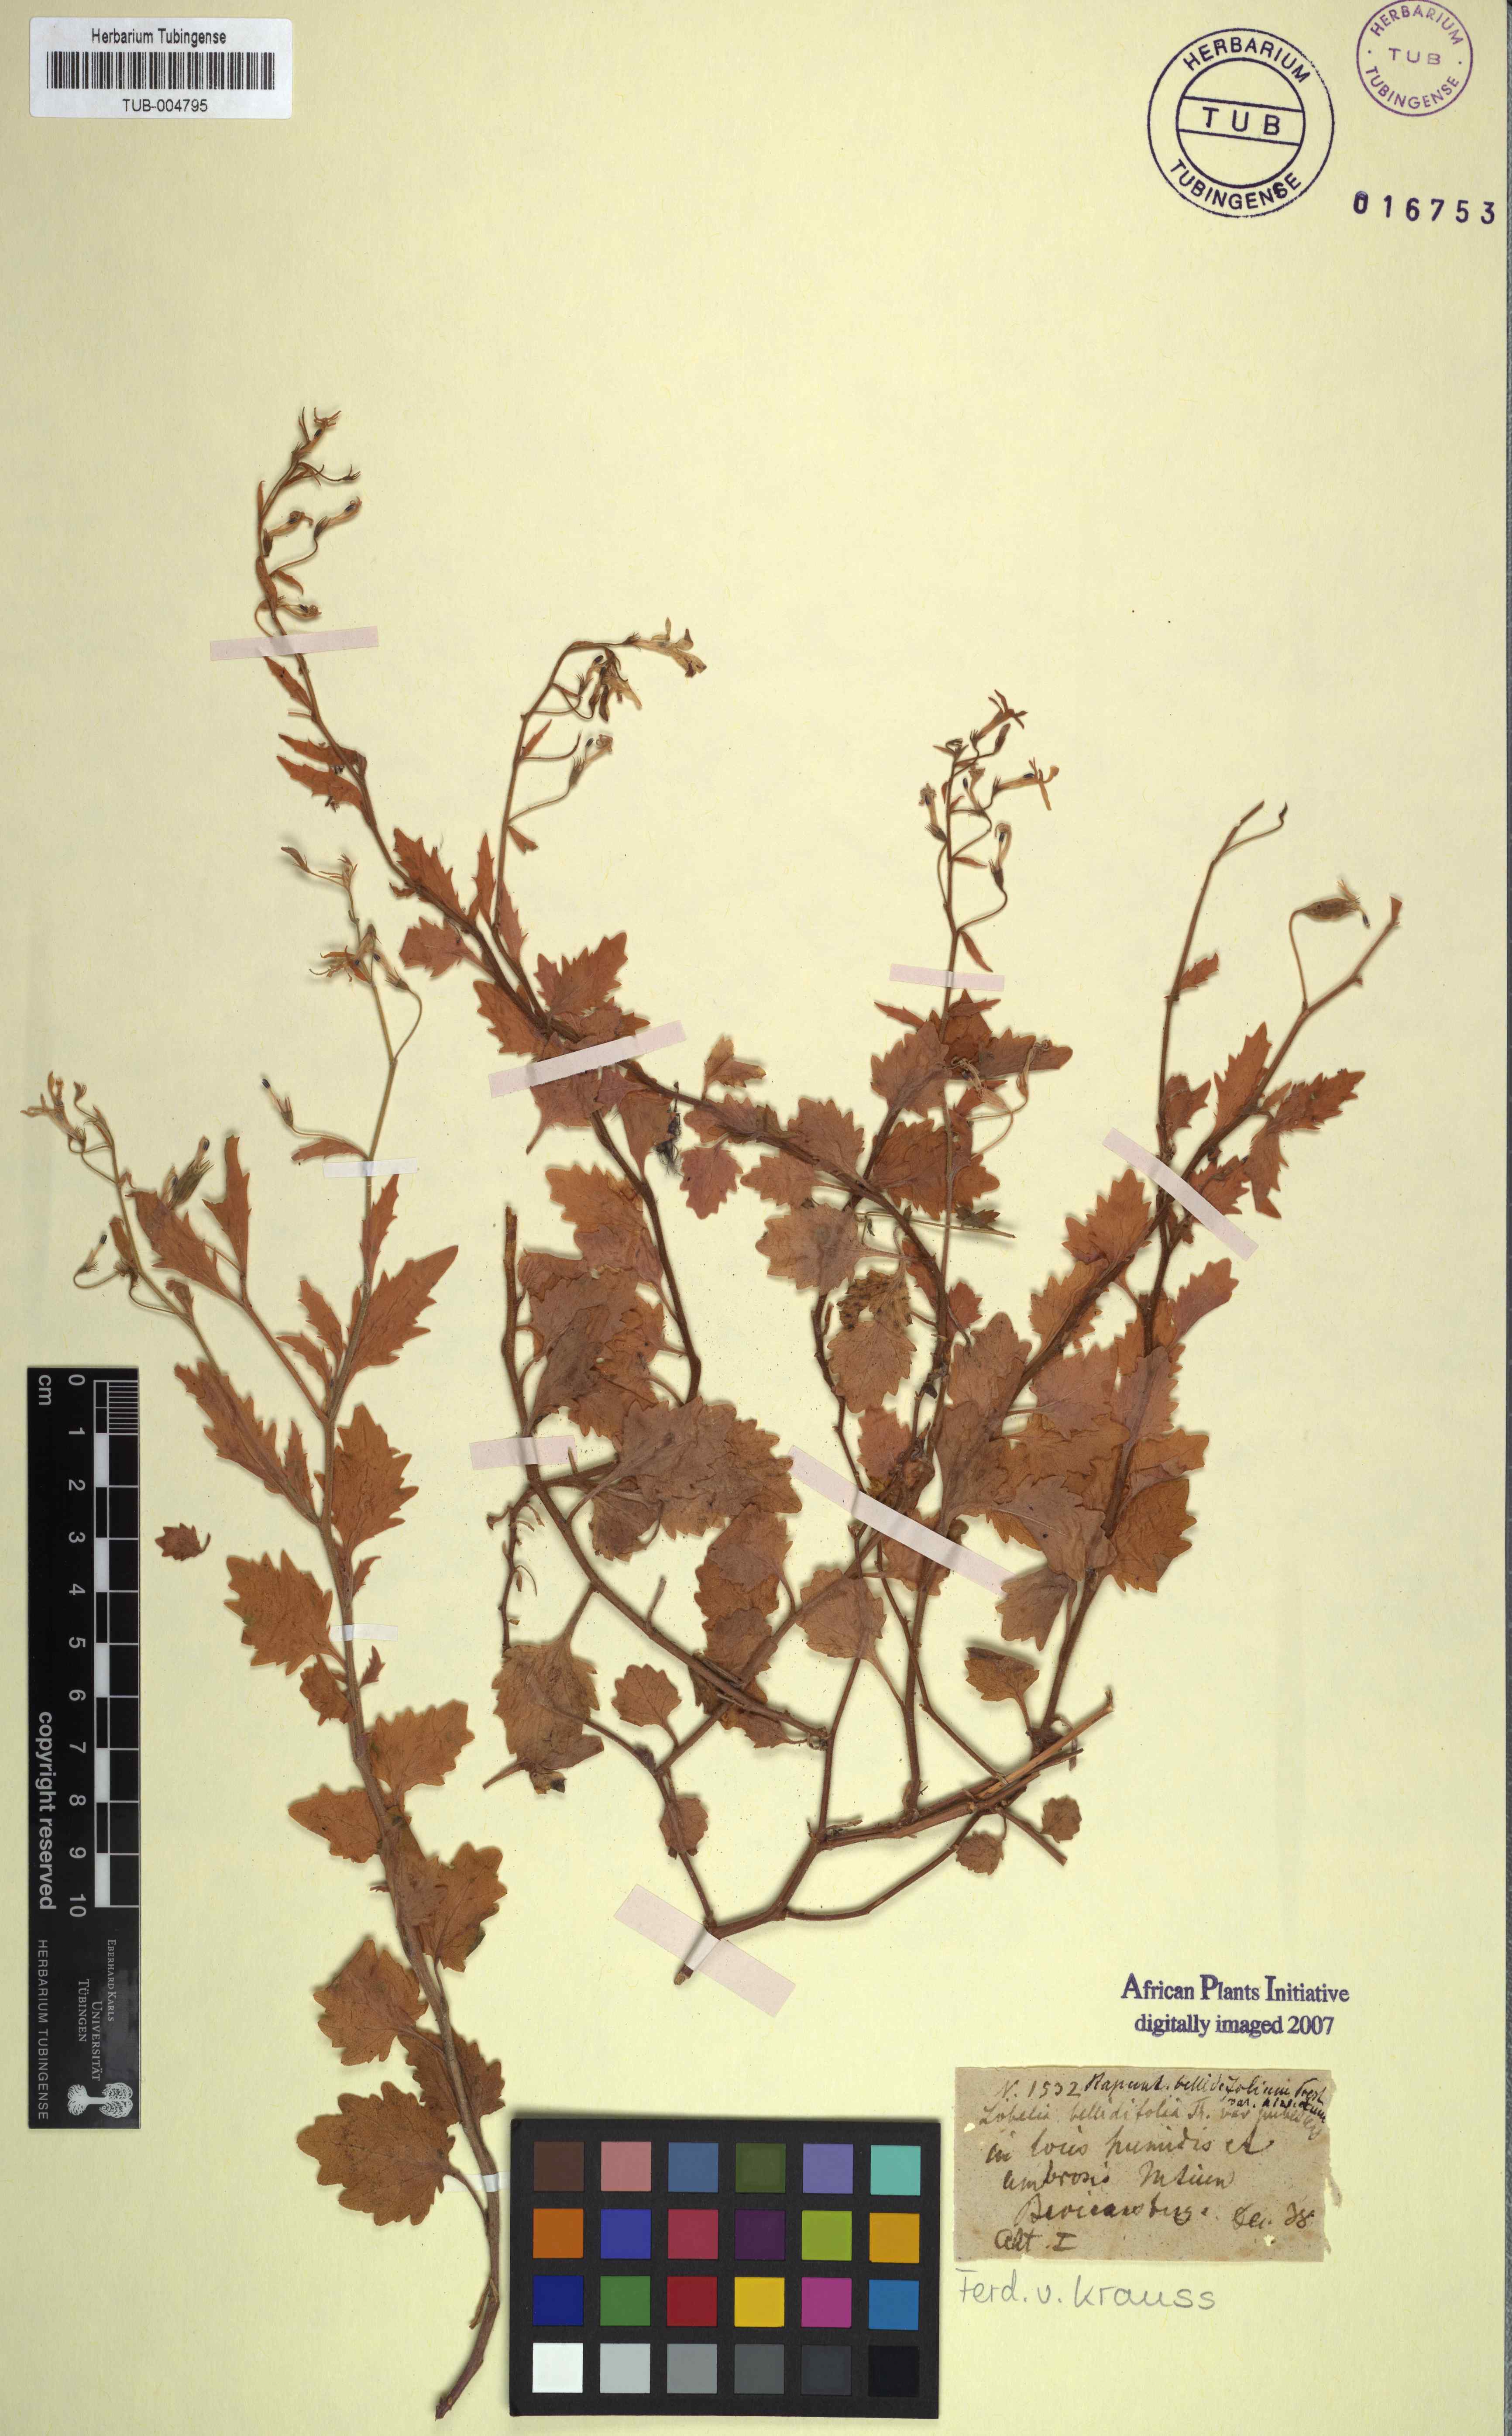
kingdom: Plantae
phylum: Tracheophyta
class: Magnoliopsida
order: Asterales
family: Campanulaceae
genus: Lobelia
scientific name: Lobelia bellidiflora
